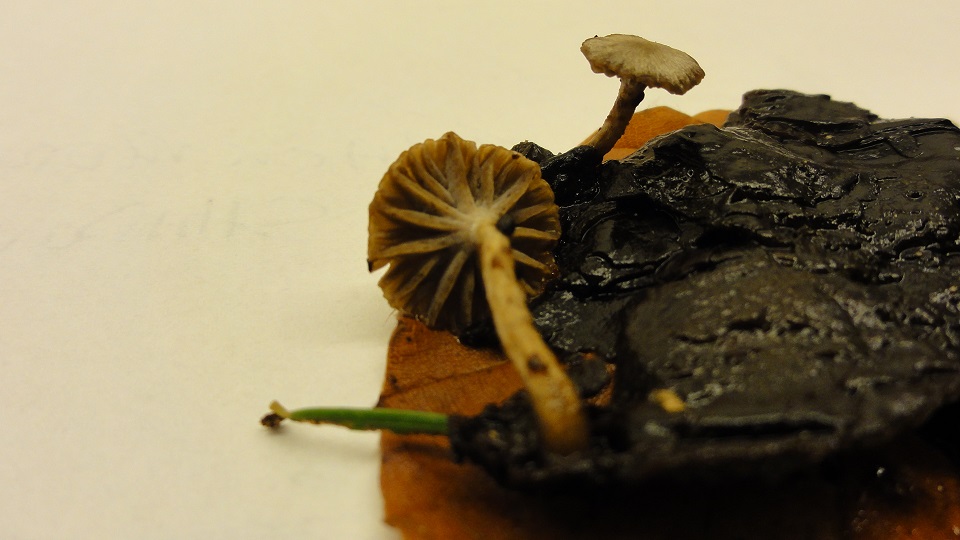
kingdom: Fungi
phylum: Basidiomycota
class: Agaricomycetes
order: Agaricales
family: Lyophyllaceae
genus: Asterophora
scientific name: Asterophora parasitica
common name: grå snyltehat
